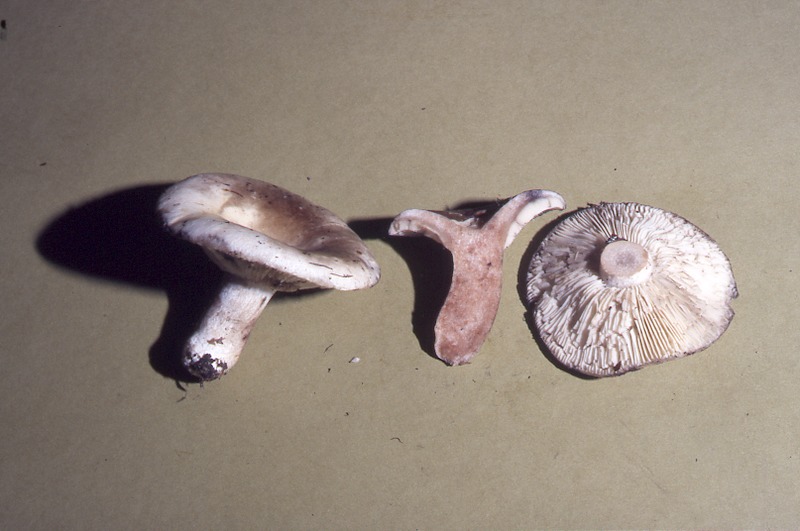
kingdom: Fungi
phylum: Basidiomycota
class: Agaricomycetes
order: Russulales
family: Russulaceae
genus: Russula
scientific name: Russula densifolia
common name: Crowded brittlegill
